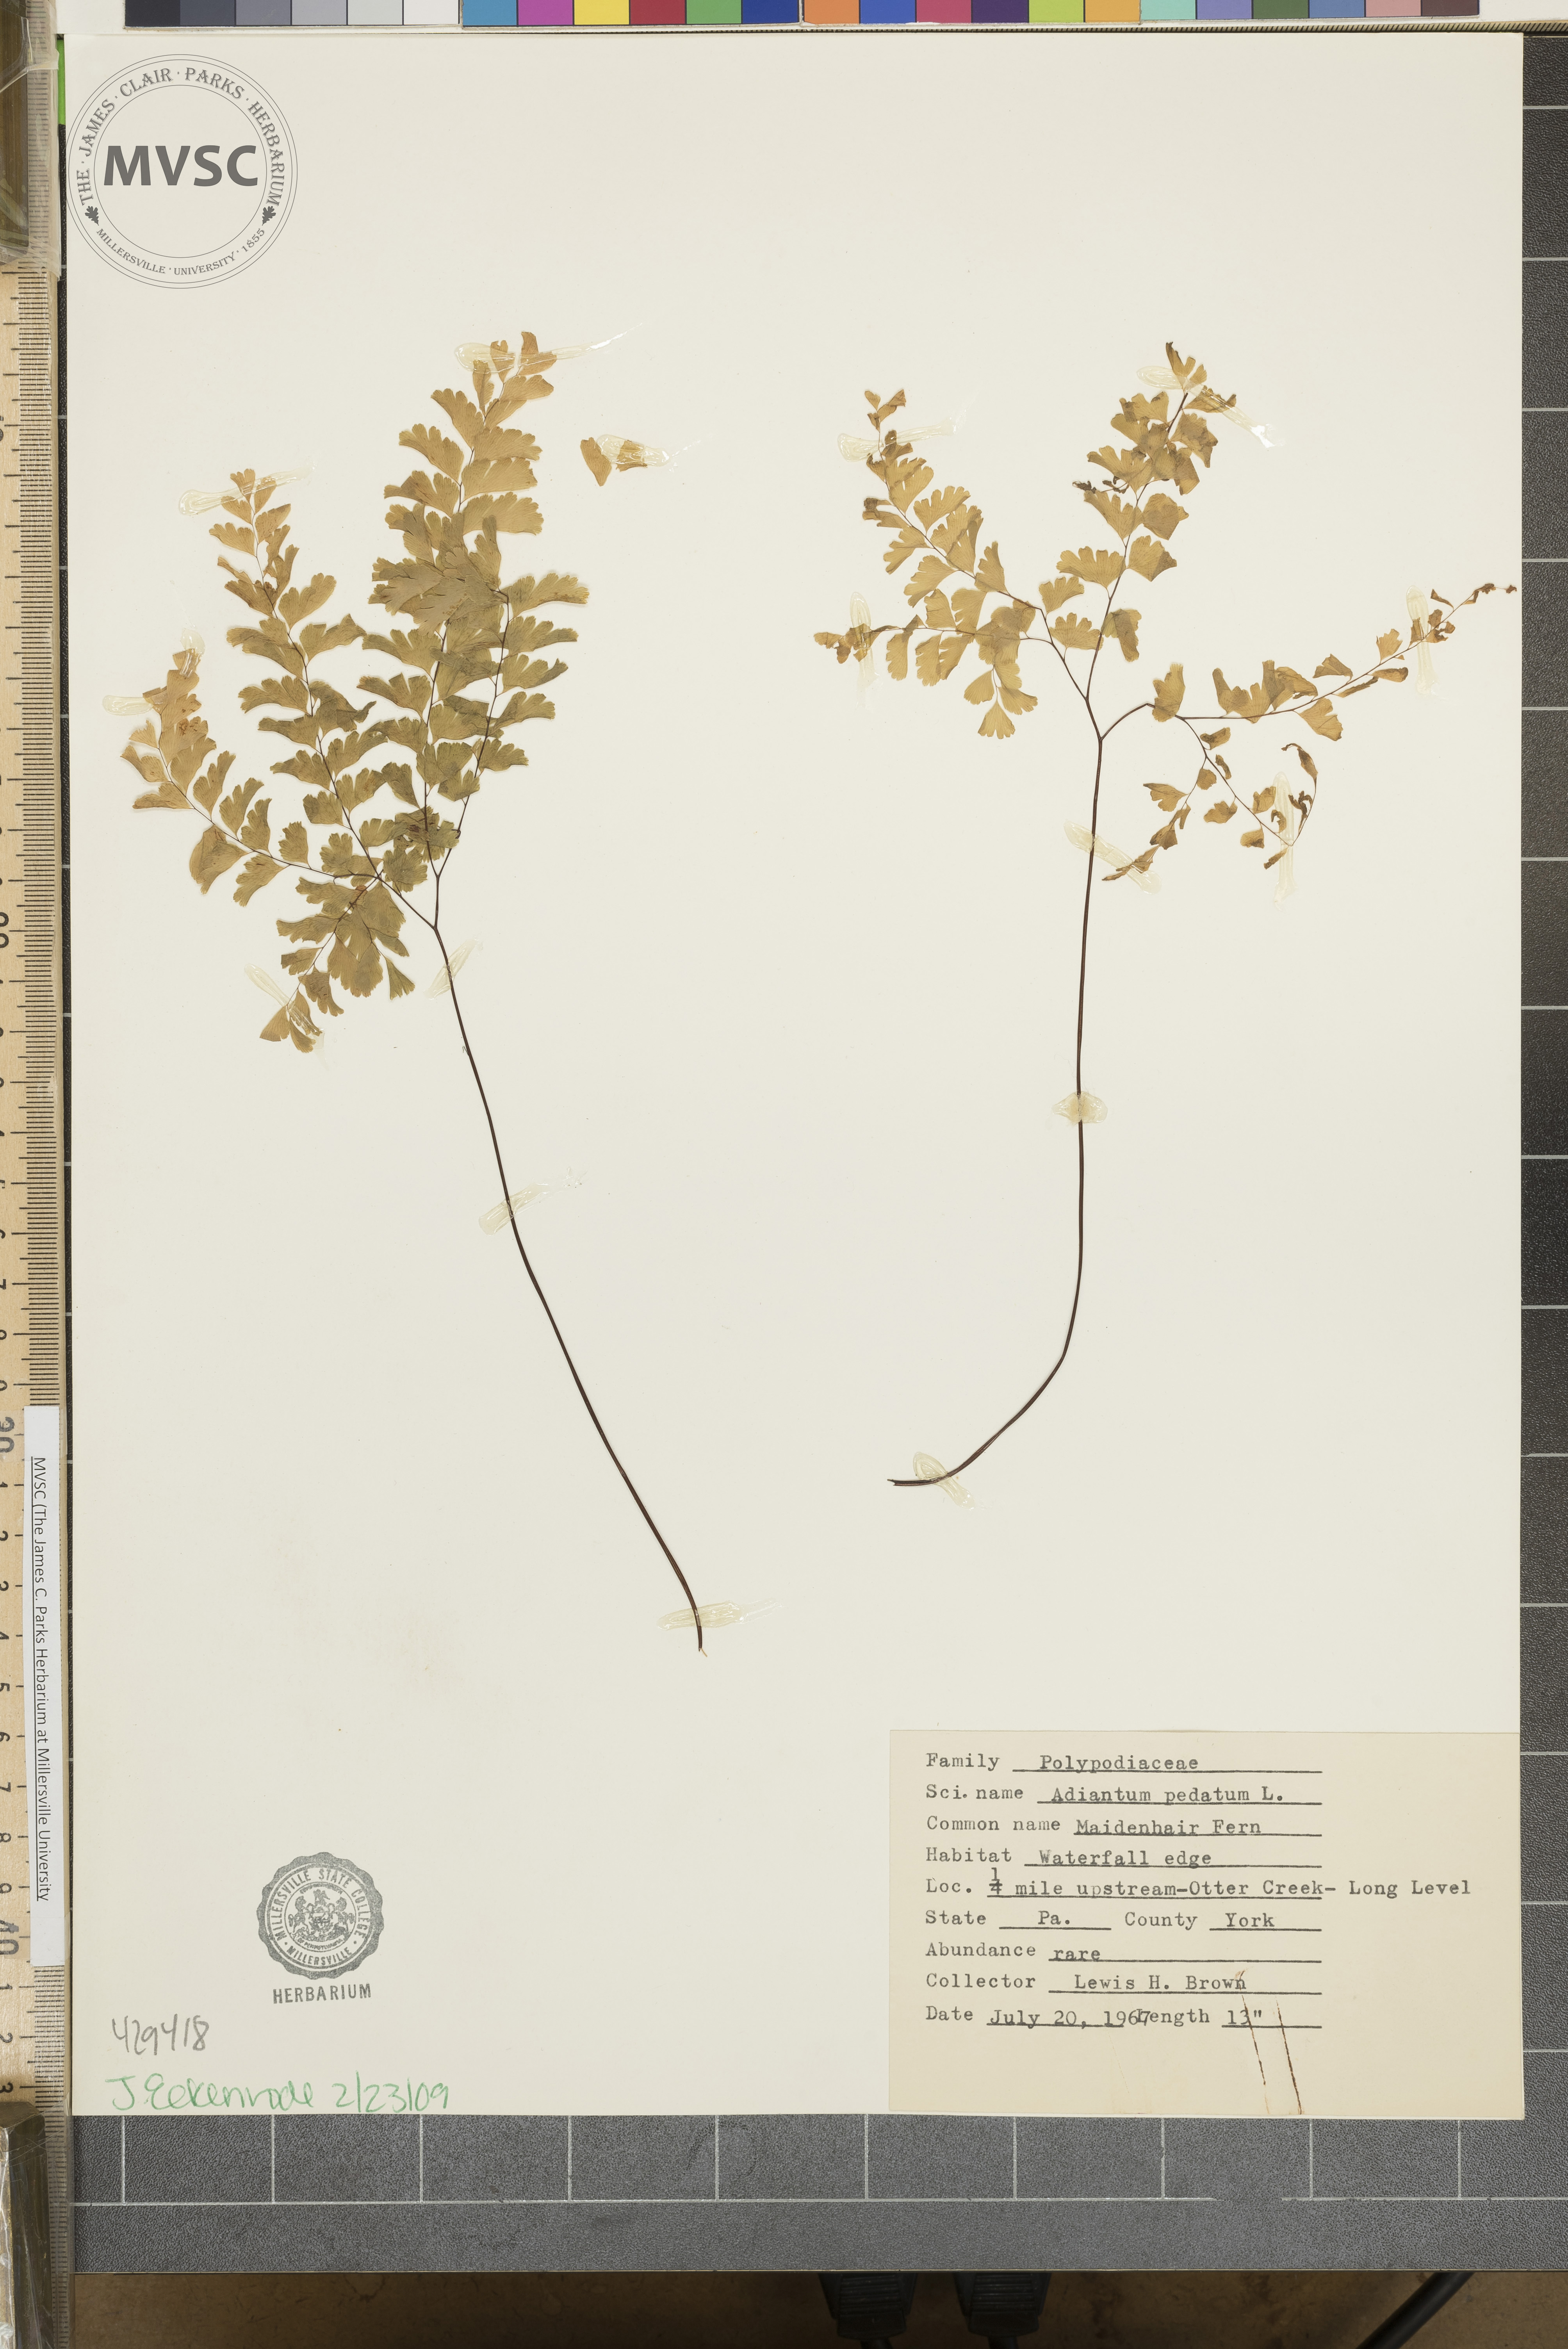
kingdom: Plantae
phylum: Tracheophyta
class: Polypodiopsida
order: Polypodiales
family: Pteridaceae
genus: Adiantum
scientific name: Adiantum pedatum
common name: Five-finger fern
